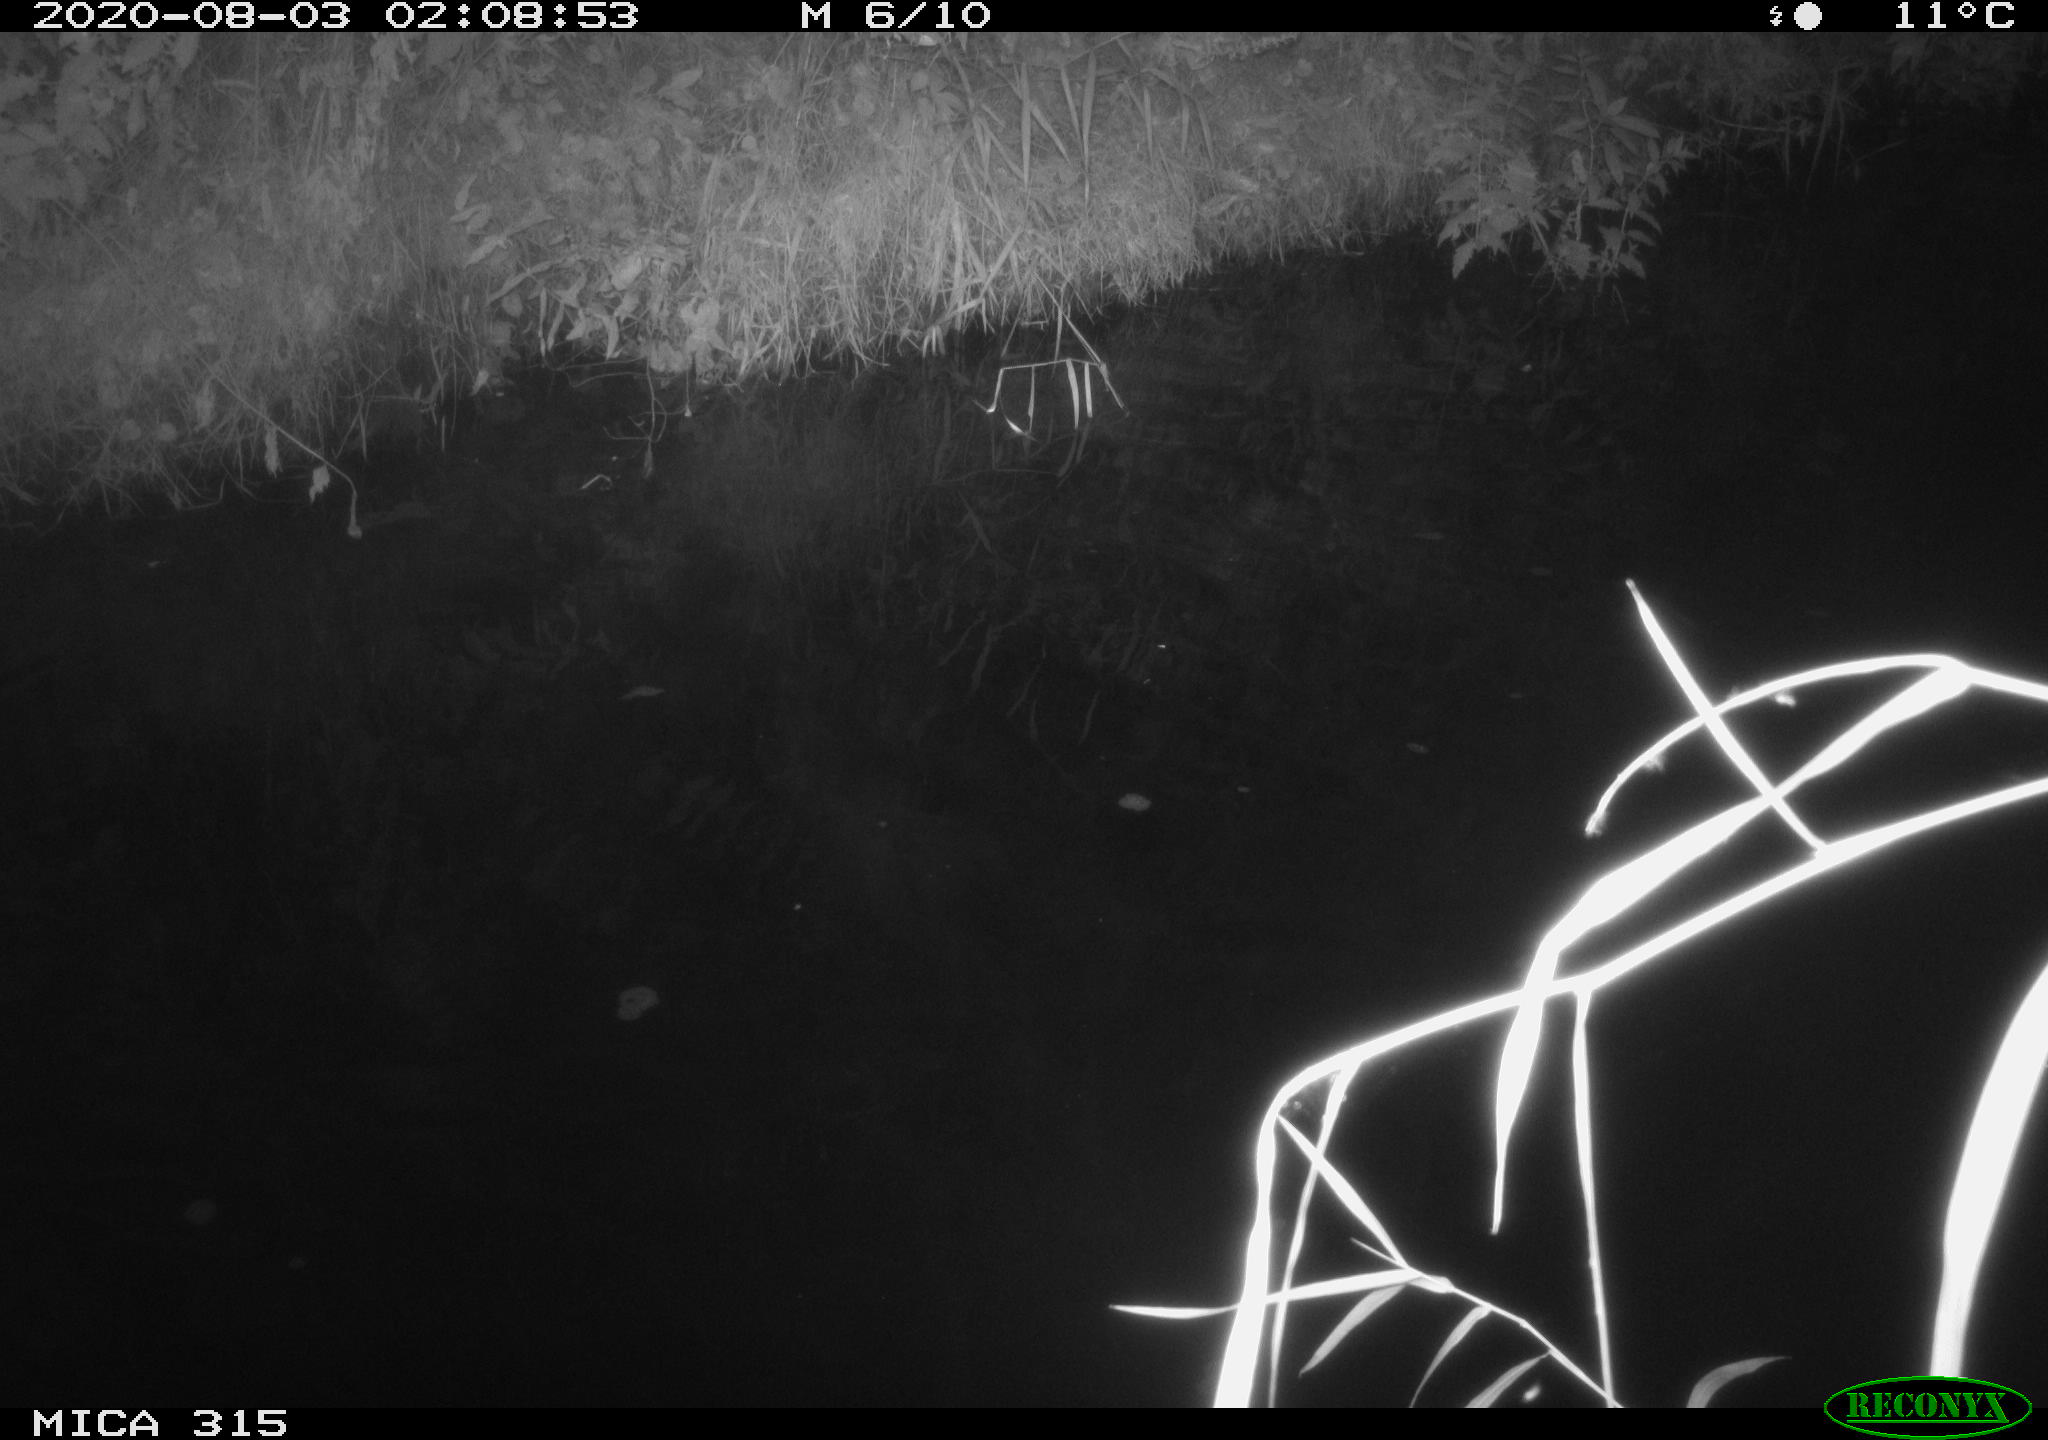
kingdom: Animalia
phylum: Chordata
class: Aves
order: Anseriformes
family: Anatidae
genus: Anas
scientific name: Anas platyrhynchos
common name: Mallard
